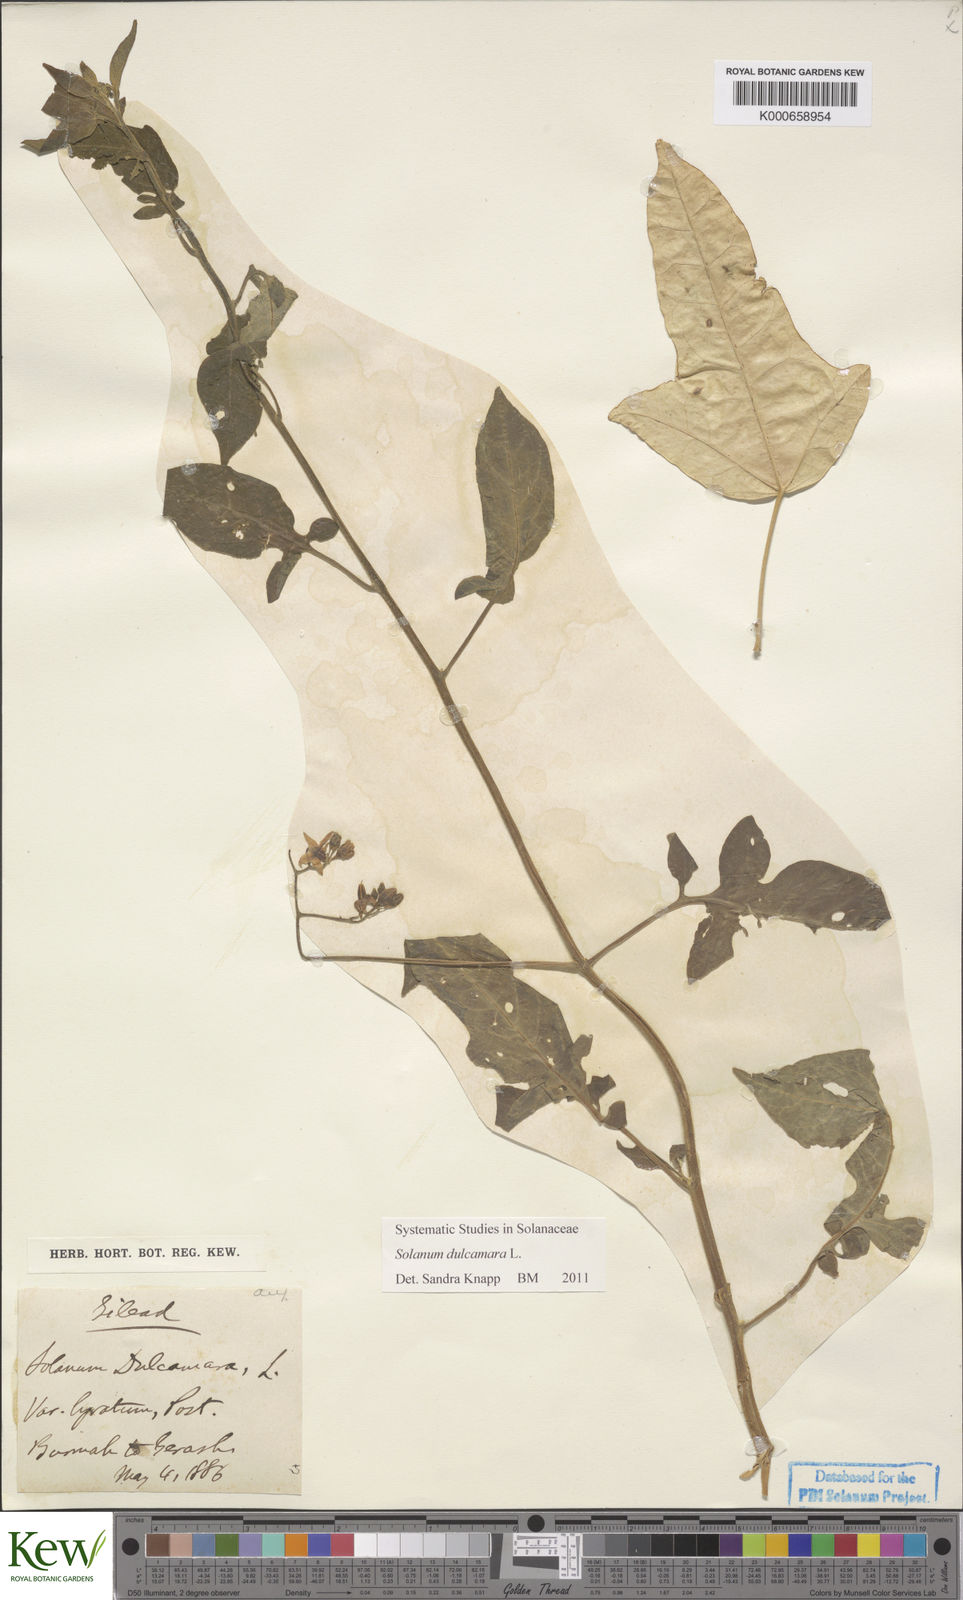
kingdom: Plantae
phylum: Tracheophyta
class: Magnoliopsida
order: Solanales
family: Solanaceae
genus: Solanum
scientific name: Solanum dulcamara
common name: Climbing nightshade
